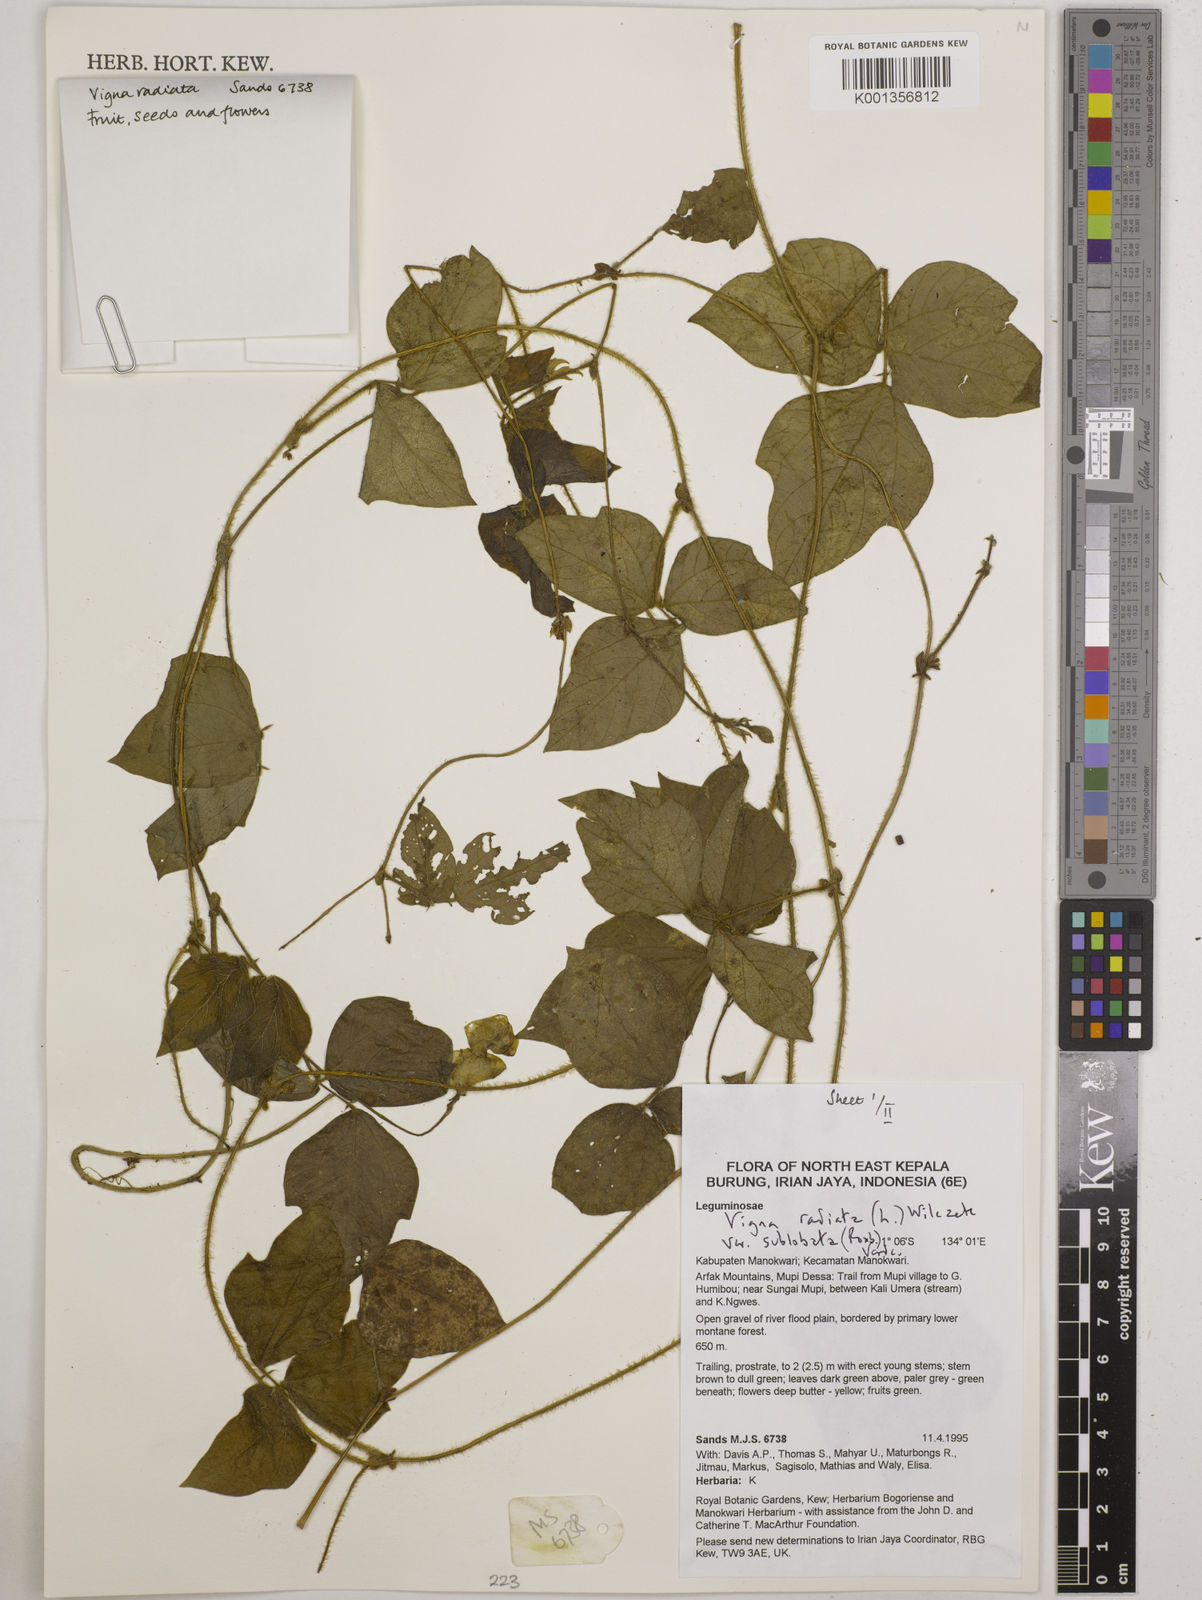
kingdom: Plantae
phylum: Tracheophyta
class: Magnoliopsida
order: Fabales
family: Fabaceae
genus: Vigna
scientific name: Vigna radiata
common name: Mung-bean
